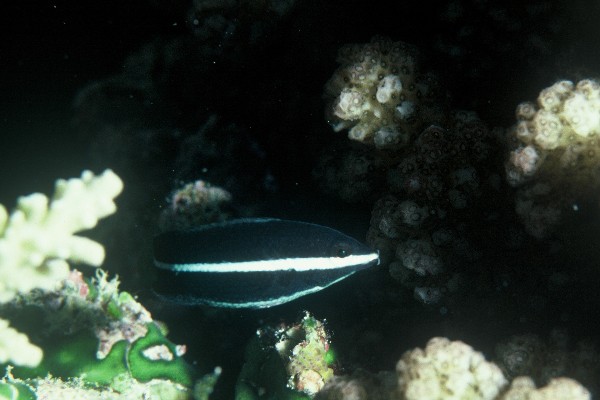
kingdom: Animalia
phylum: Chordata
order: Perciformes
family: Labridae
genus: Labrichthys
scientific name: Labrichthys unilineatus
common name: Onelined wrasse
